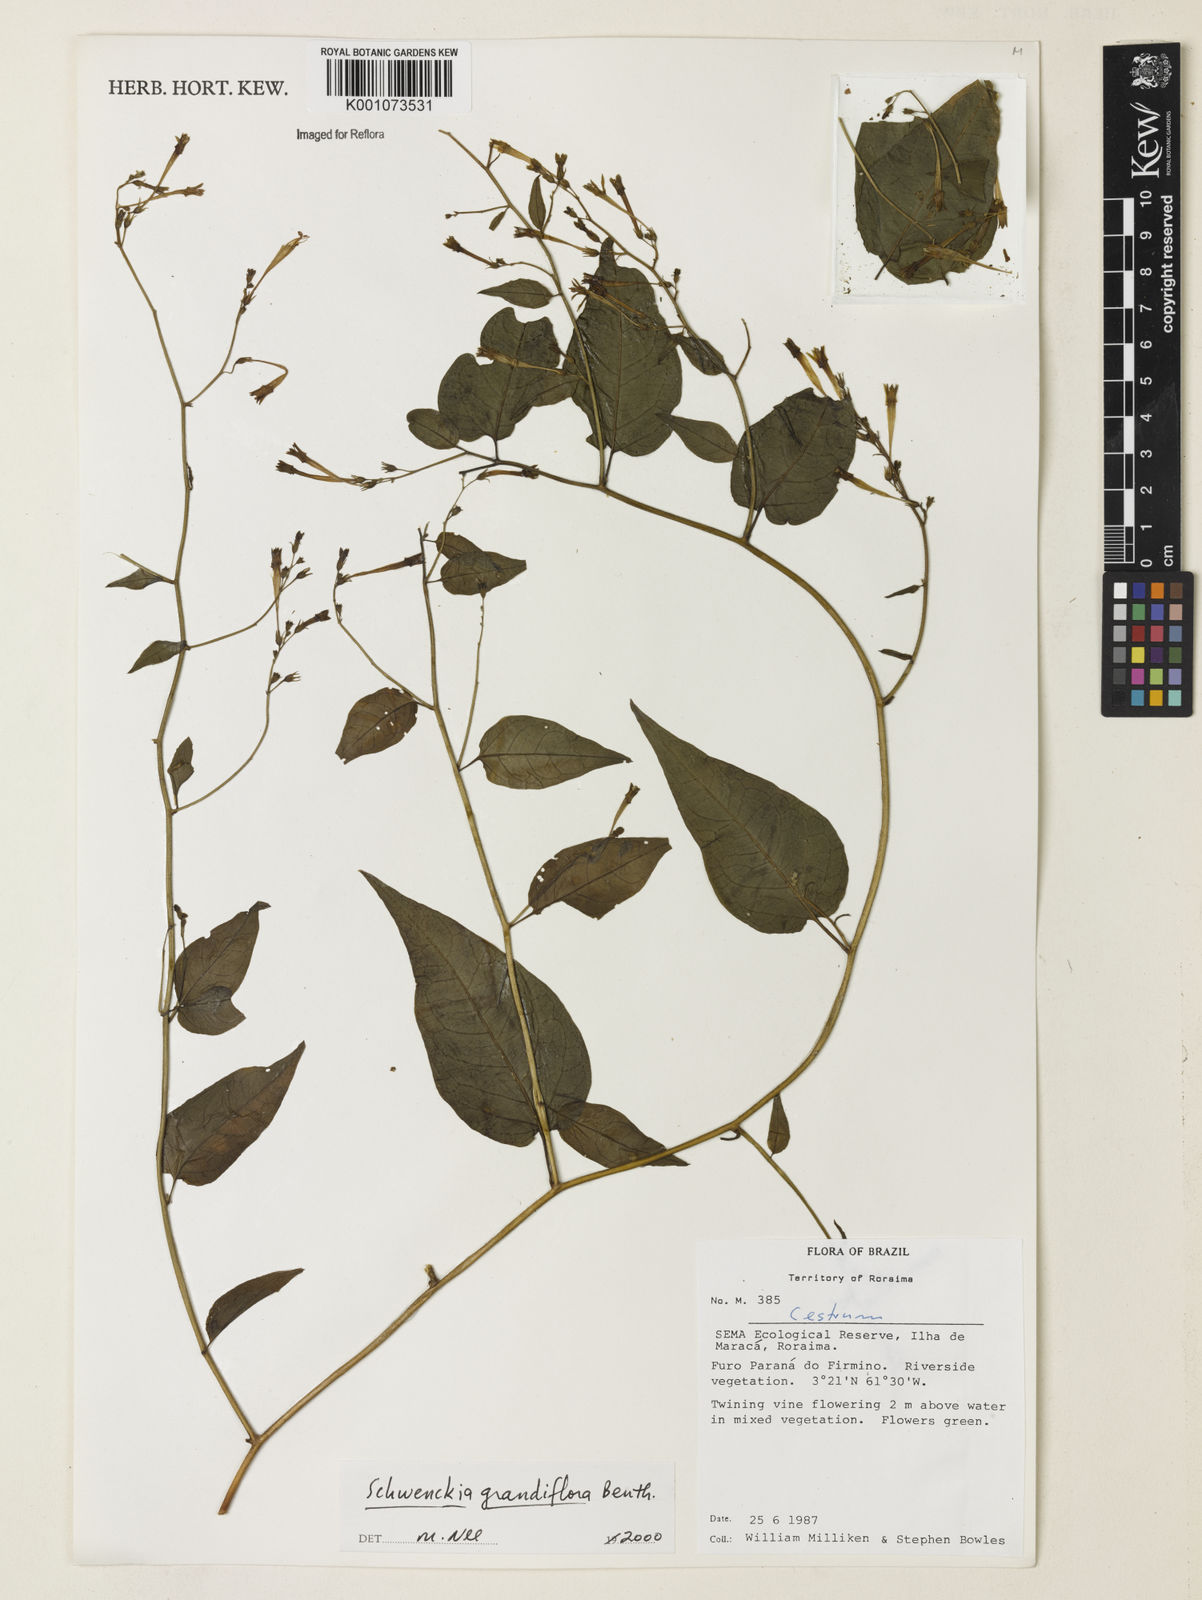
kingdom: Plantae
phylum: Tracheophyta
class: Magnoliopsida
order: Solanales
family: Solanaceae
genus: Schwenckia
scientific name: Schwenckia grandiflora
